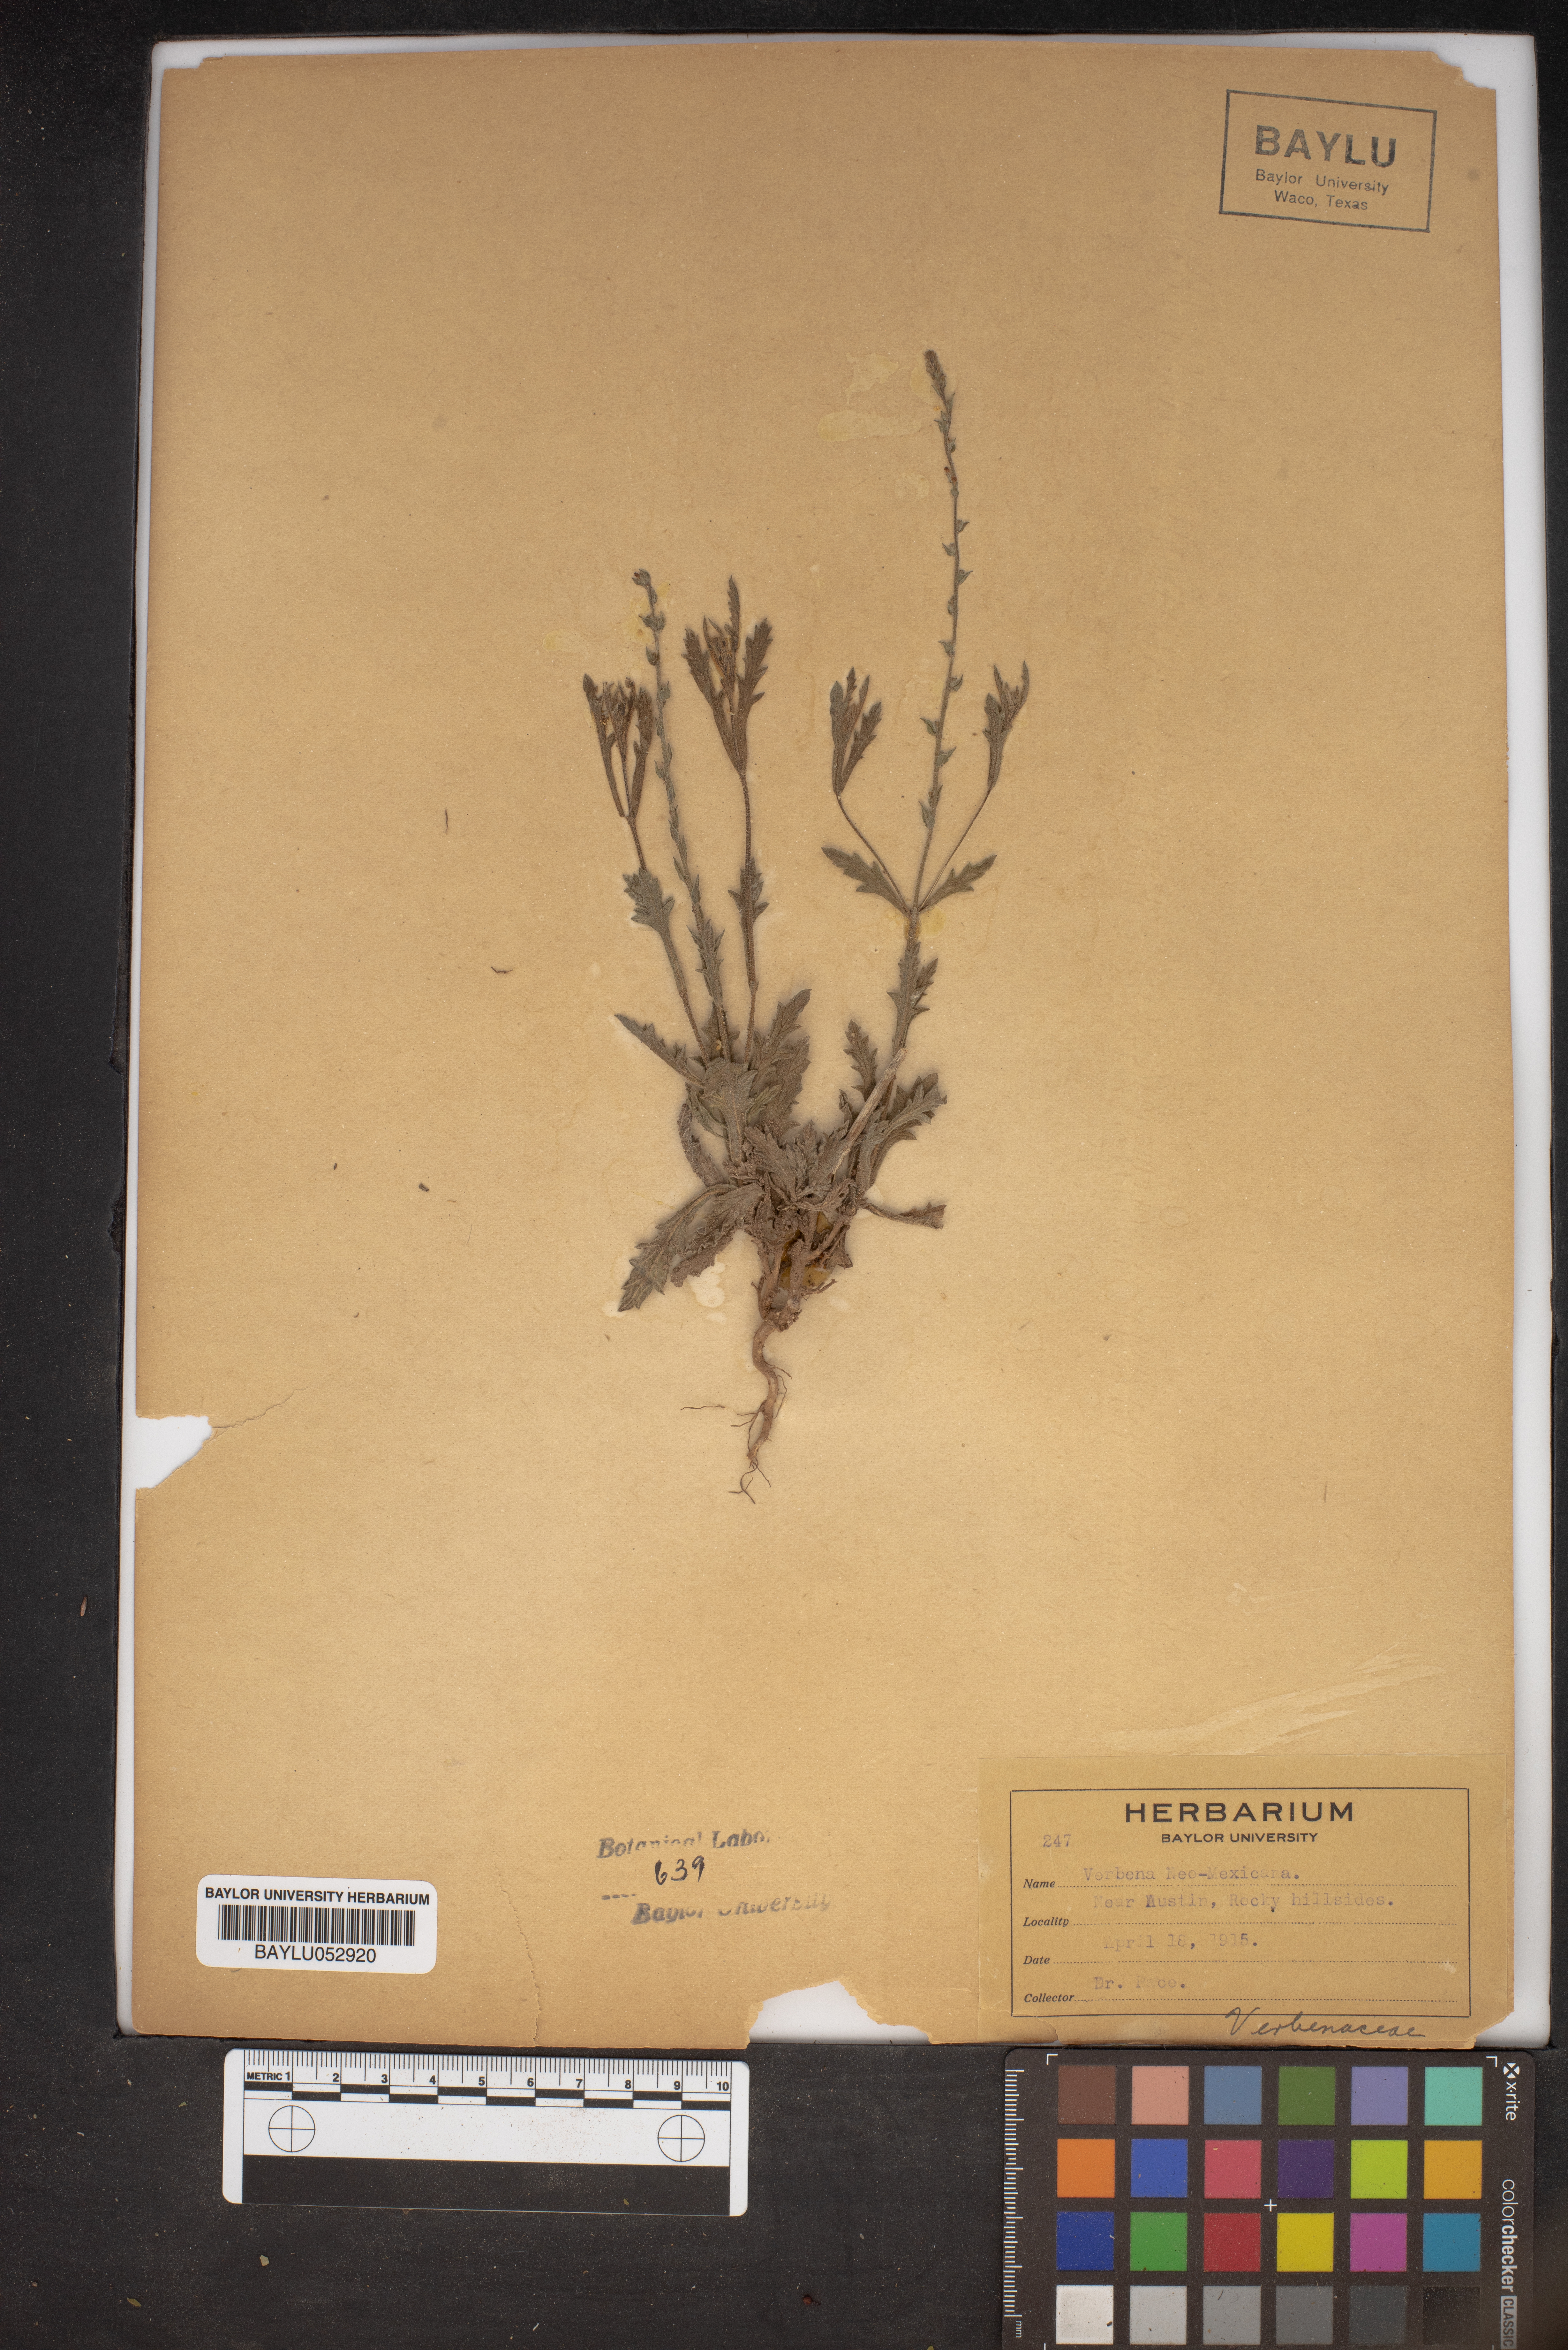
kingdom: Plantae
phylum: Tracheophyta
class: Magnoliopsida
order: Lamiales
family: Verbenaceae
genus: Verbena
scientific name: Verbena neomexicana
